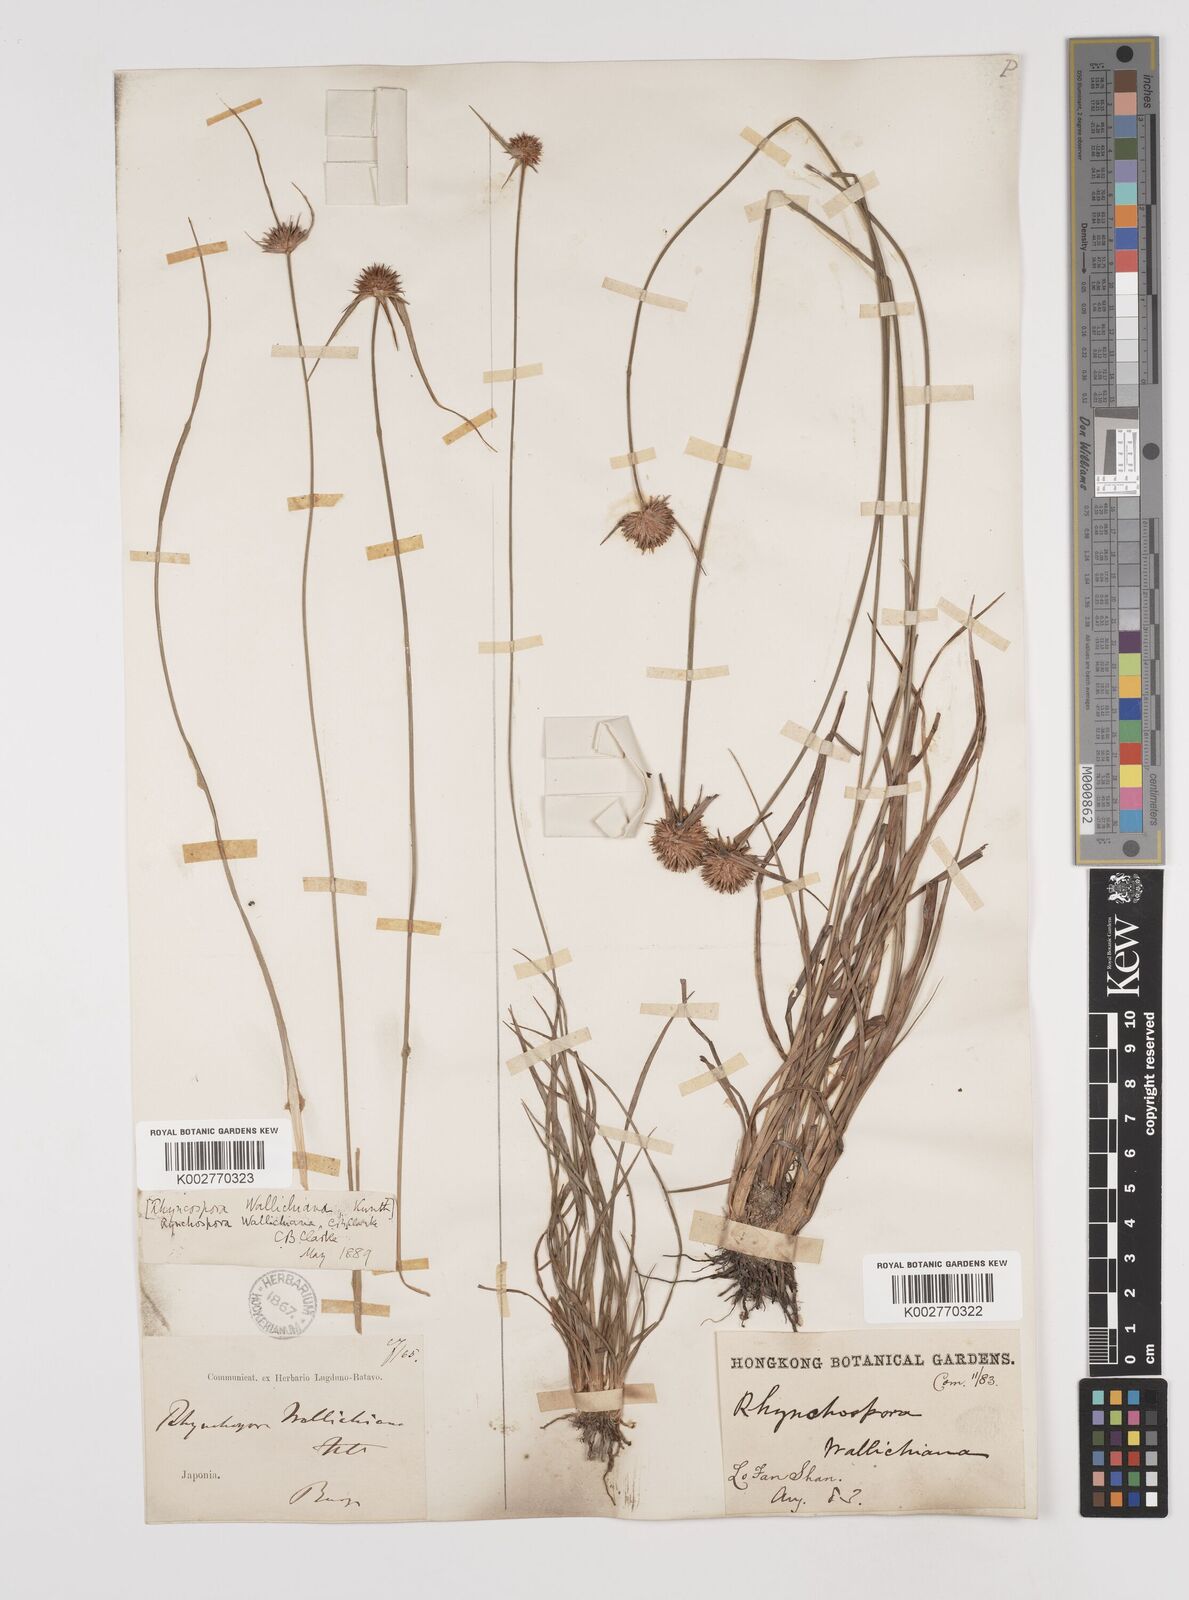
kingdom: Plantae
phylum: Tracheophyta
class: Liliopsida
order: Poales
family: Cyperaceae
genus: Rhynchospora
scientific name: Rhynchospora rubra
